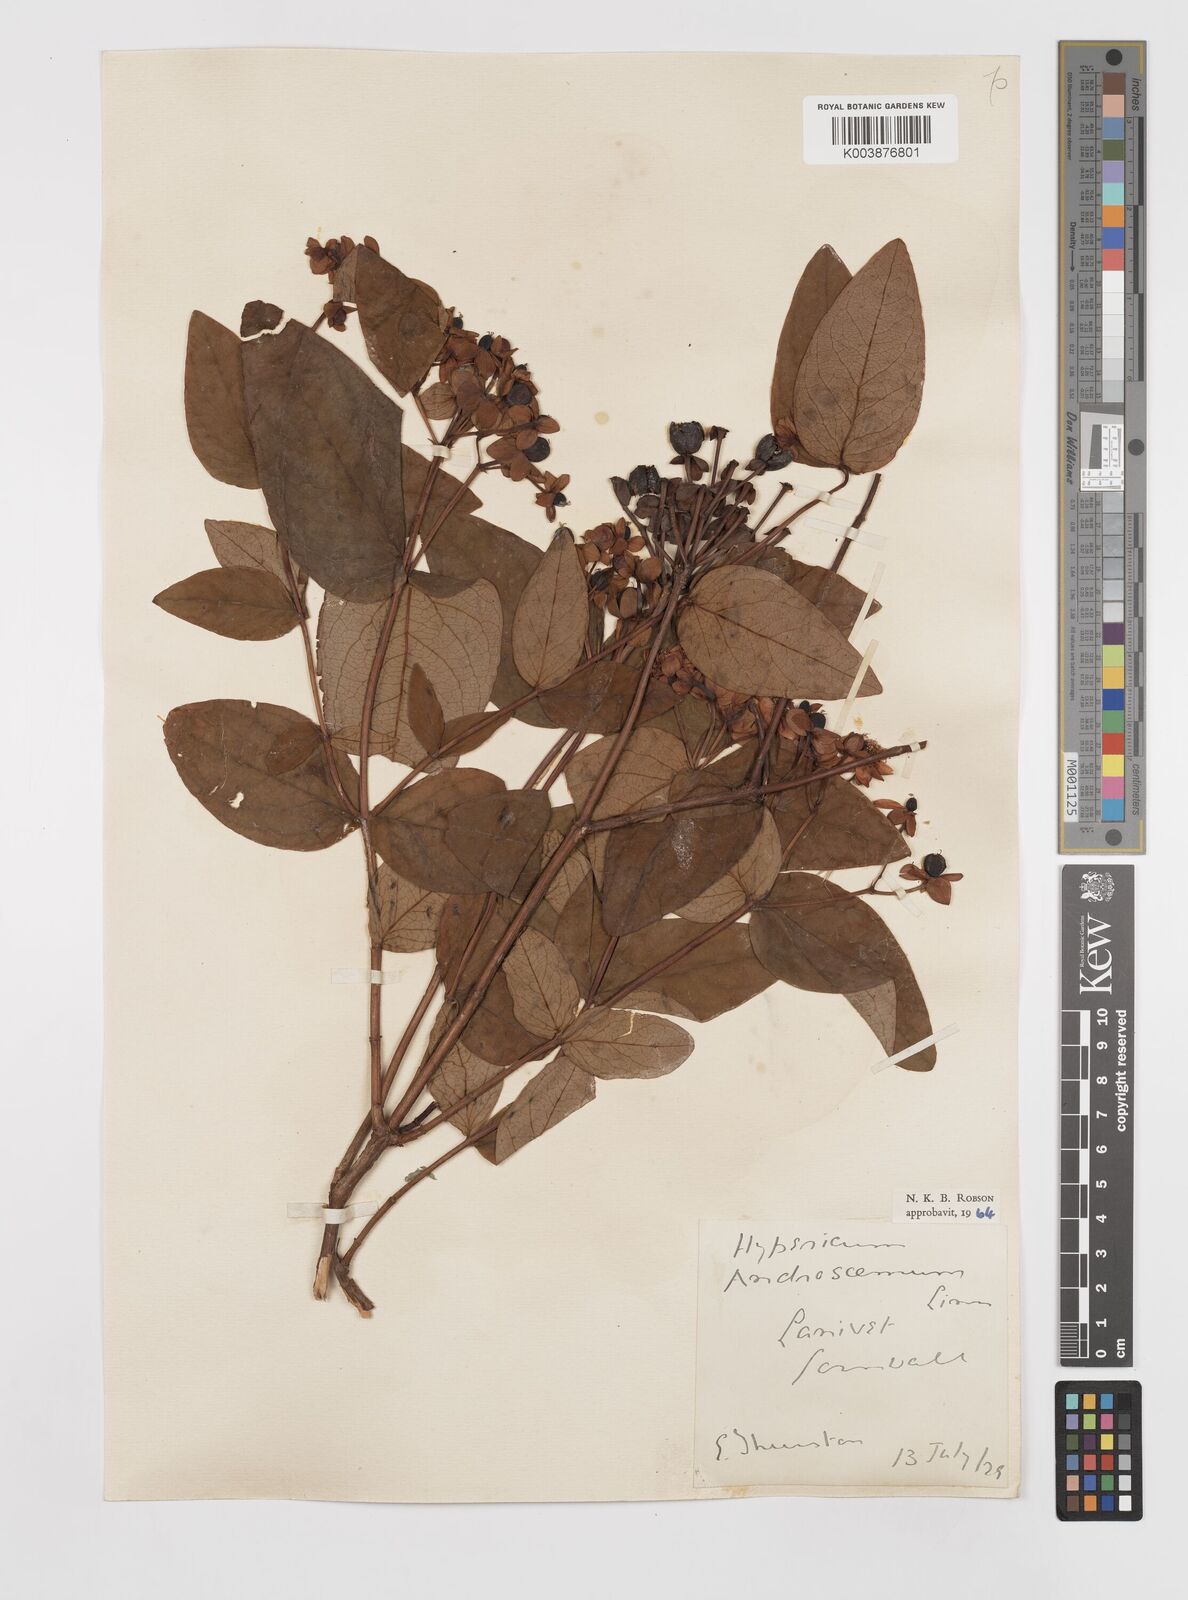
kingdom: Plantae
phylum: Tracheophyta
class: Magnoliopsida
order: Malpighiales
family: Hypericaceae
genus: Hypericum
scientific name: Hypericum androsaemum
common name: Sweet-amber
